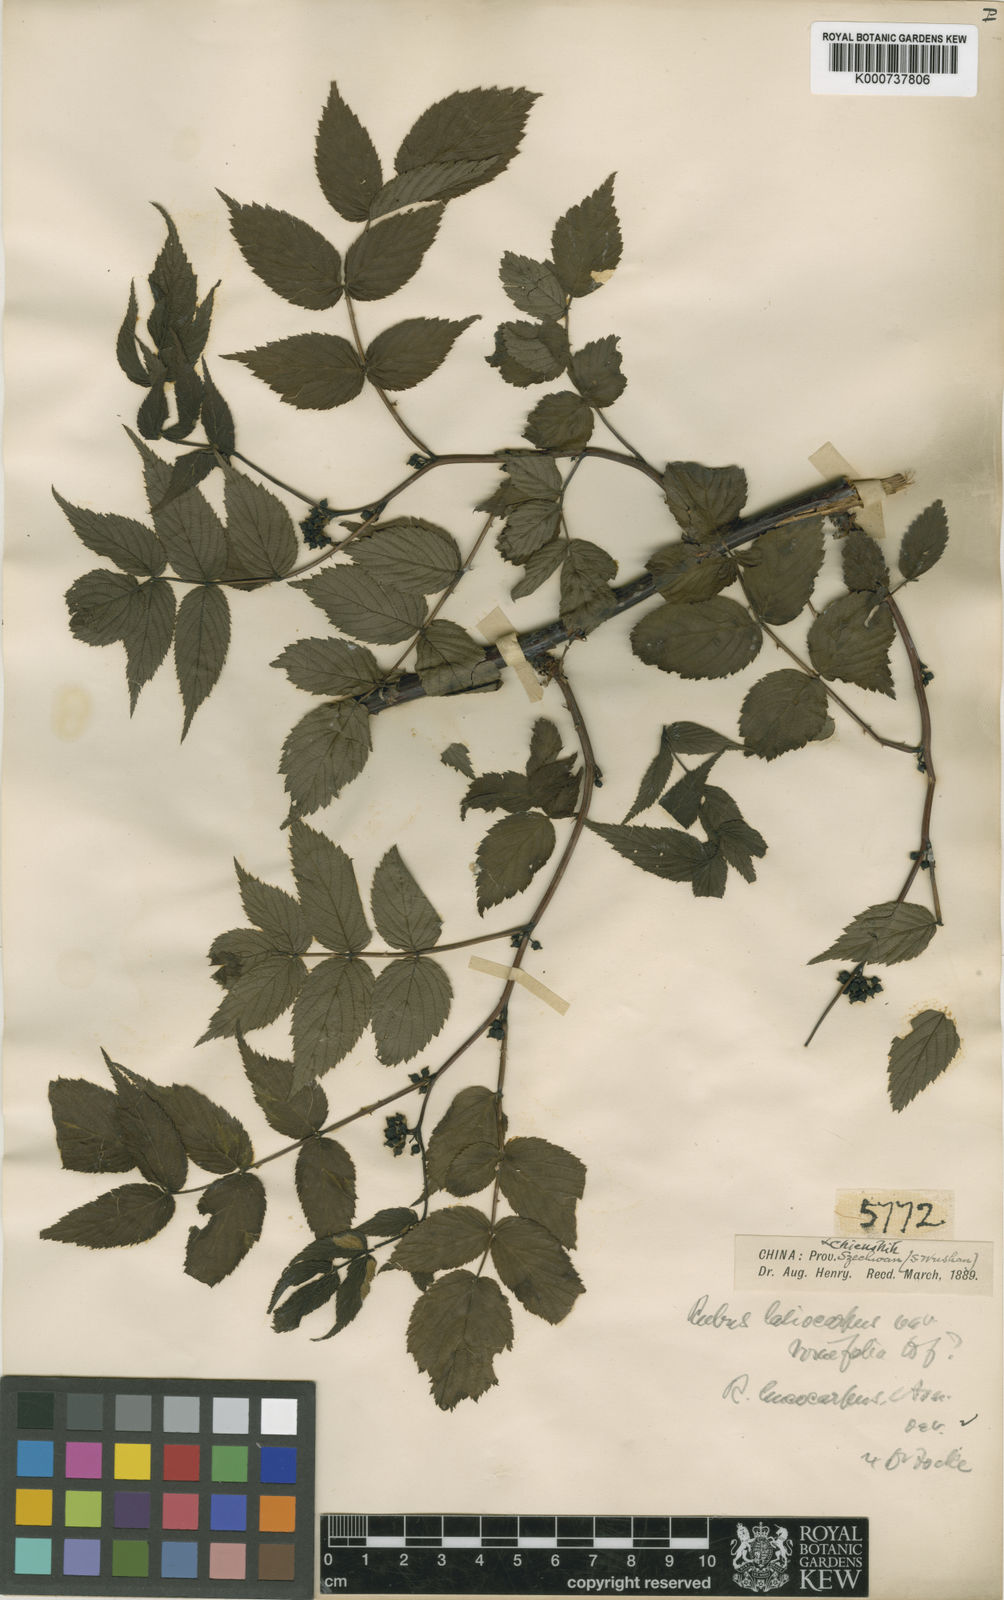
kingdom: Plantae
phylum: Tracheophyta
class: Magnoliopsida
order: Rosales
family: Rosaceae
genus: Rubus
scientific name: Rubus inopertus
